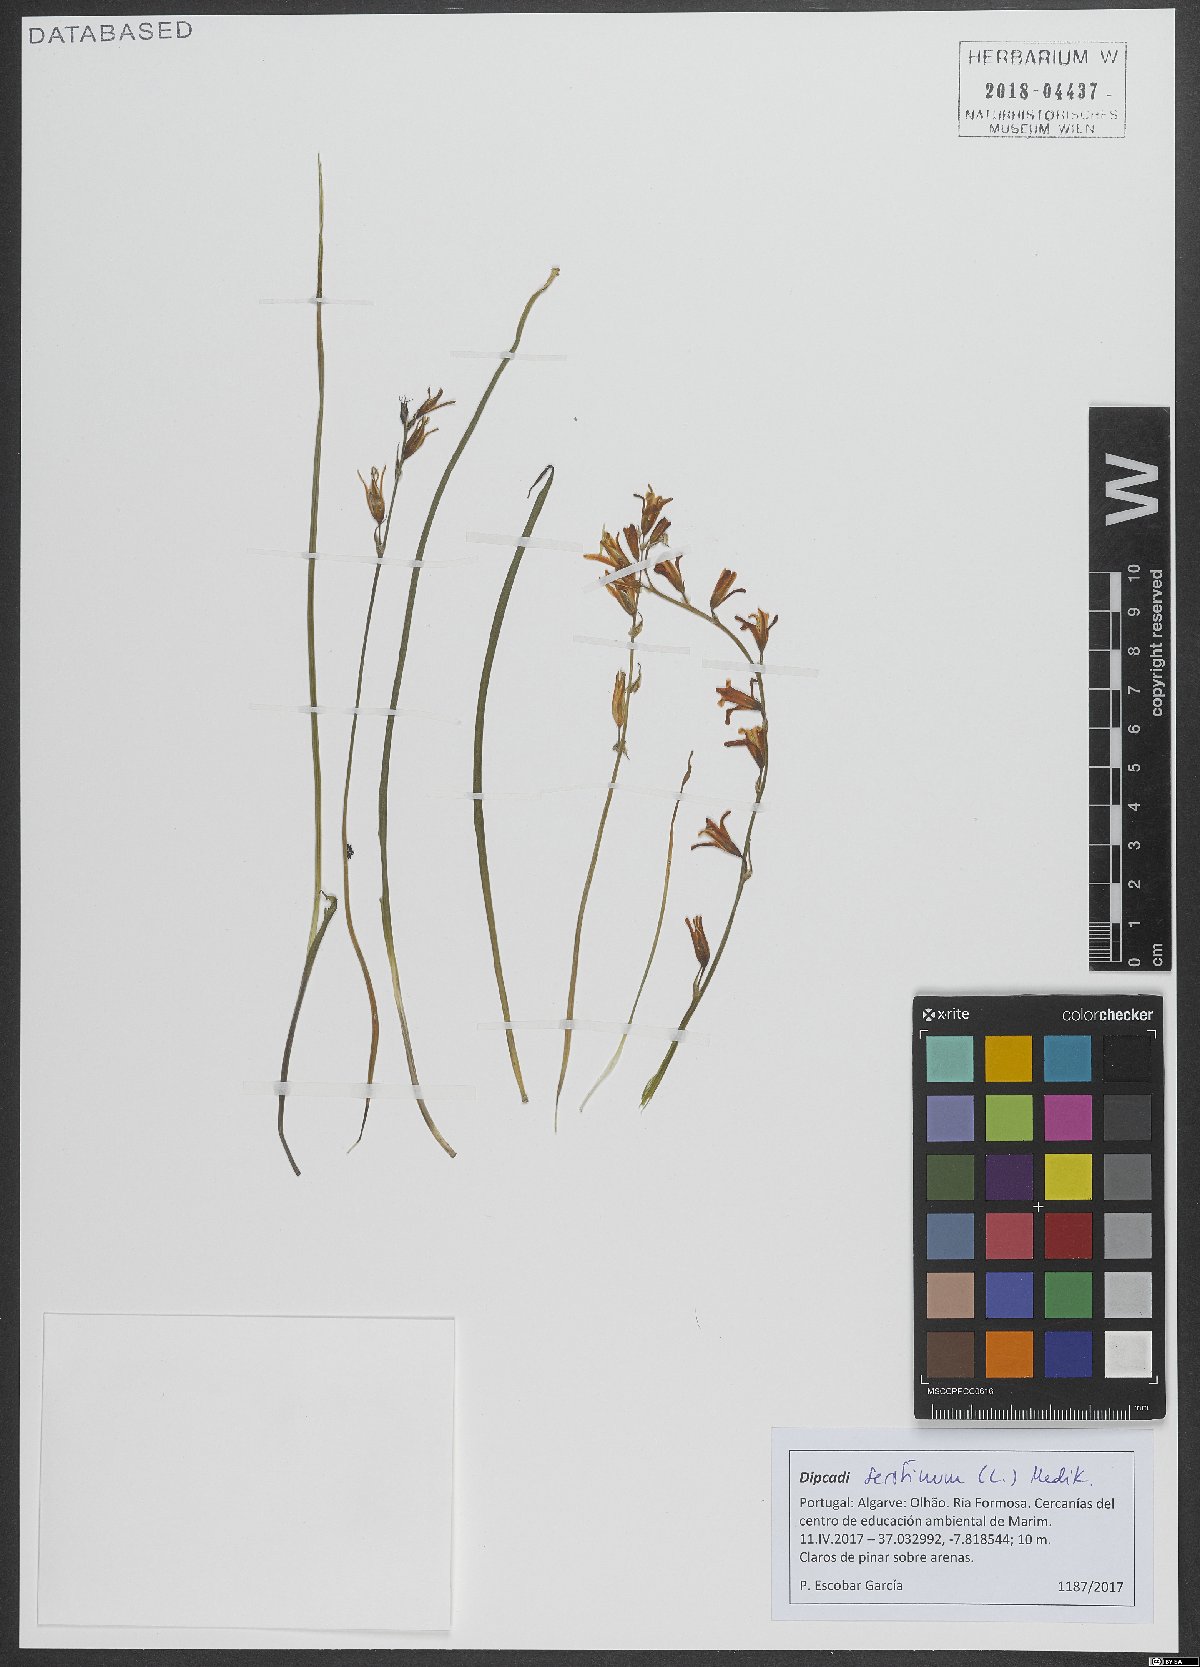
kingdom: Plantae
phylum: Tracheophyta
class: Liliopsida
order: Asparagales
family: Asparagaceae
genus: Dipcadi
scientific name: Dipcadi serotinum
